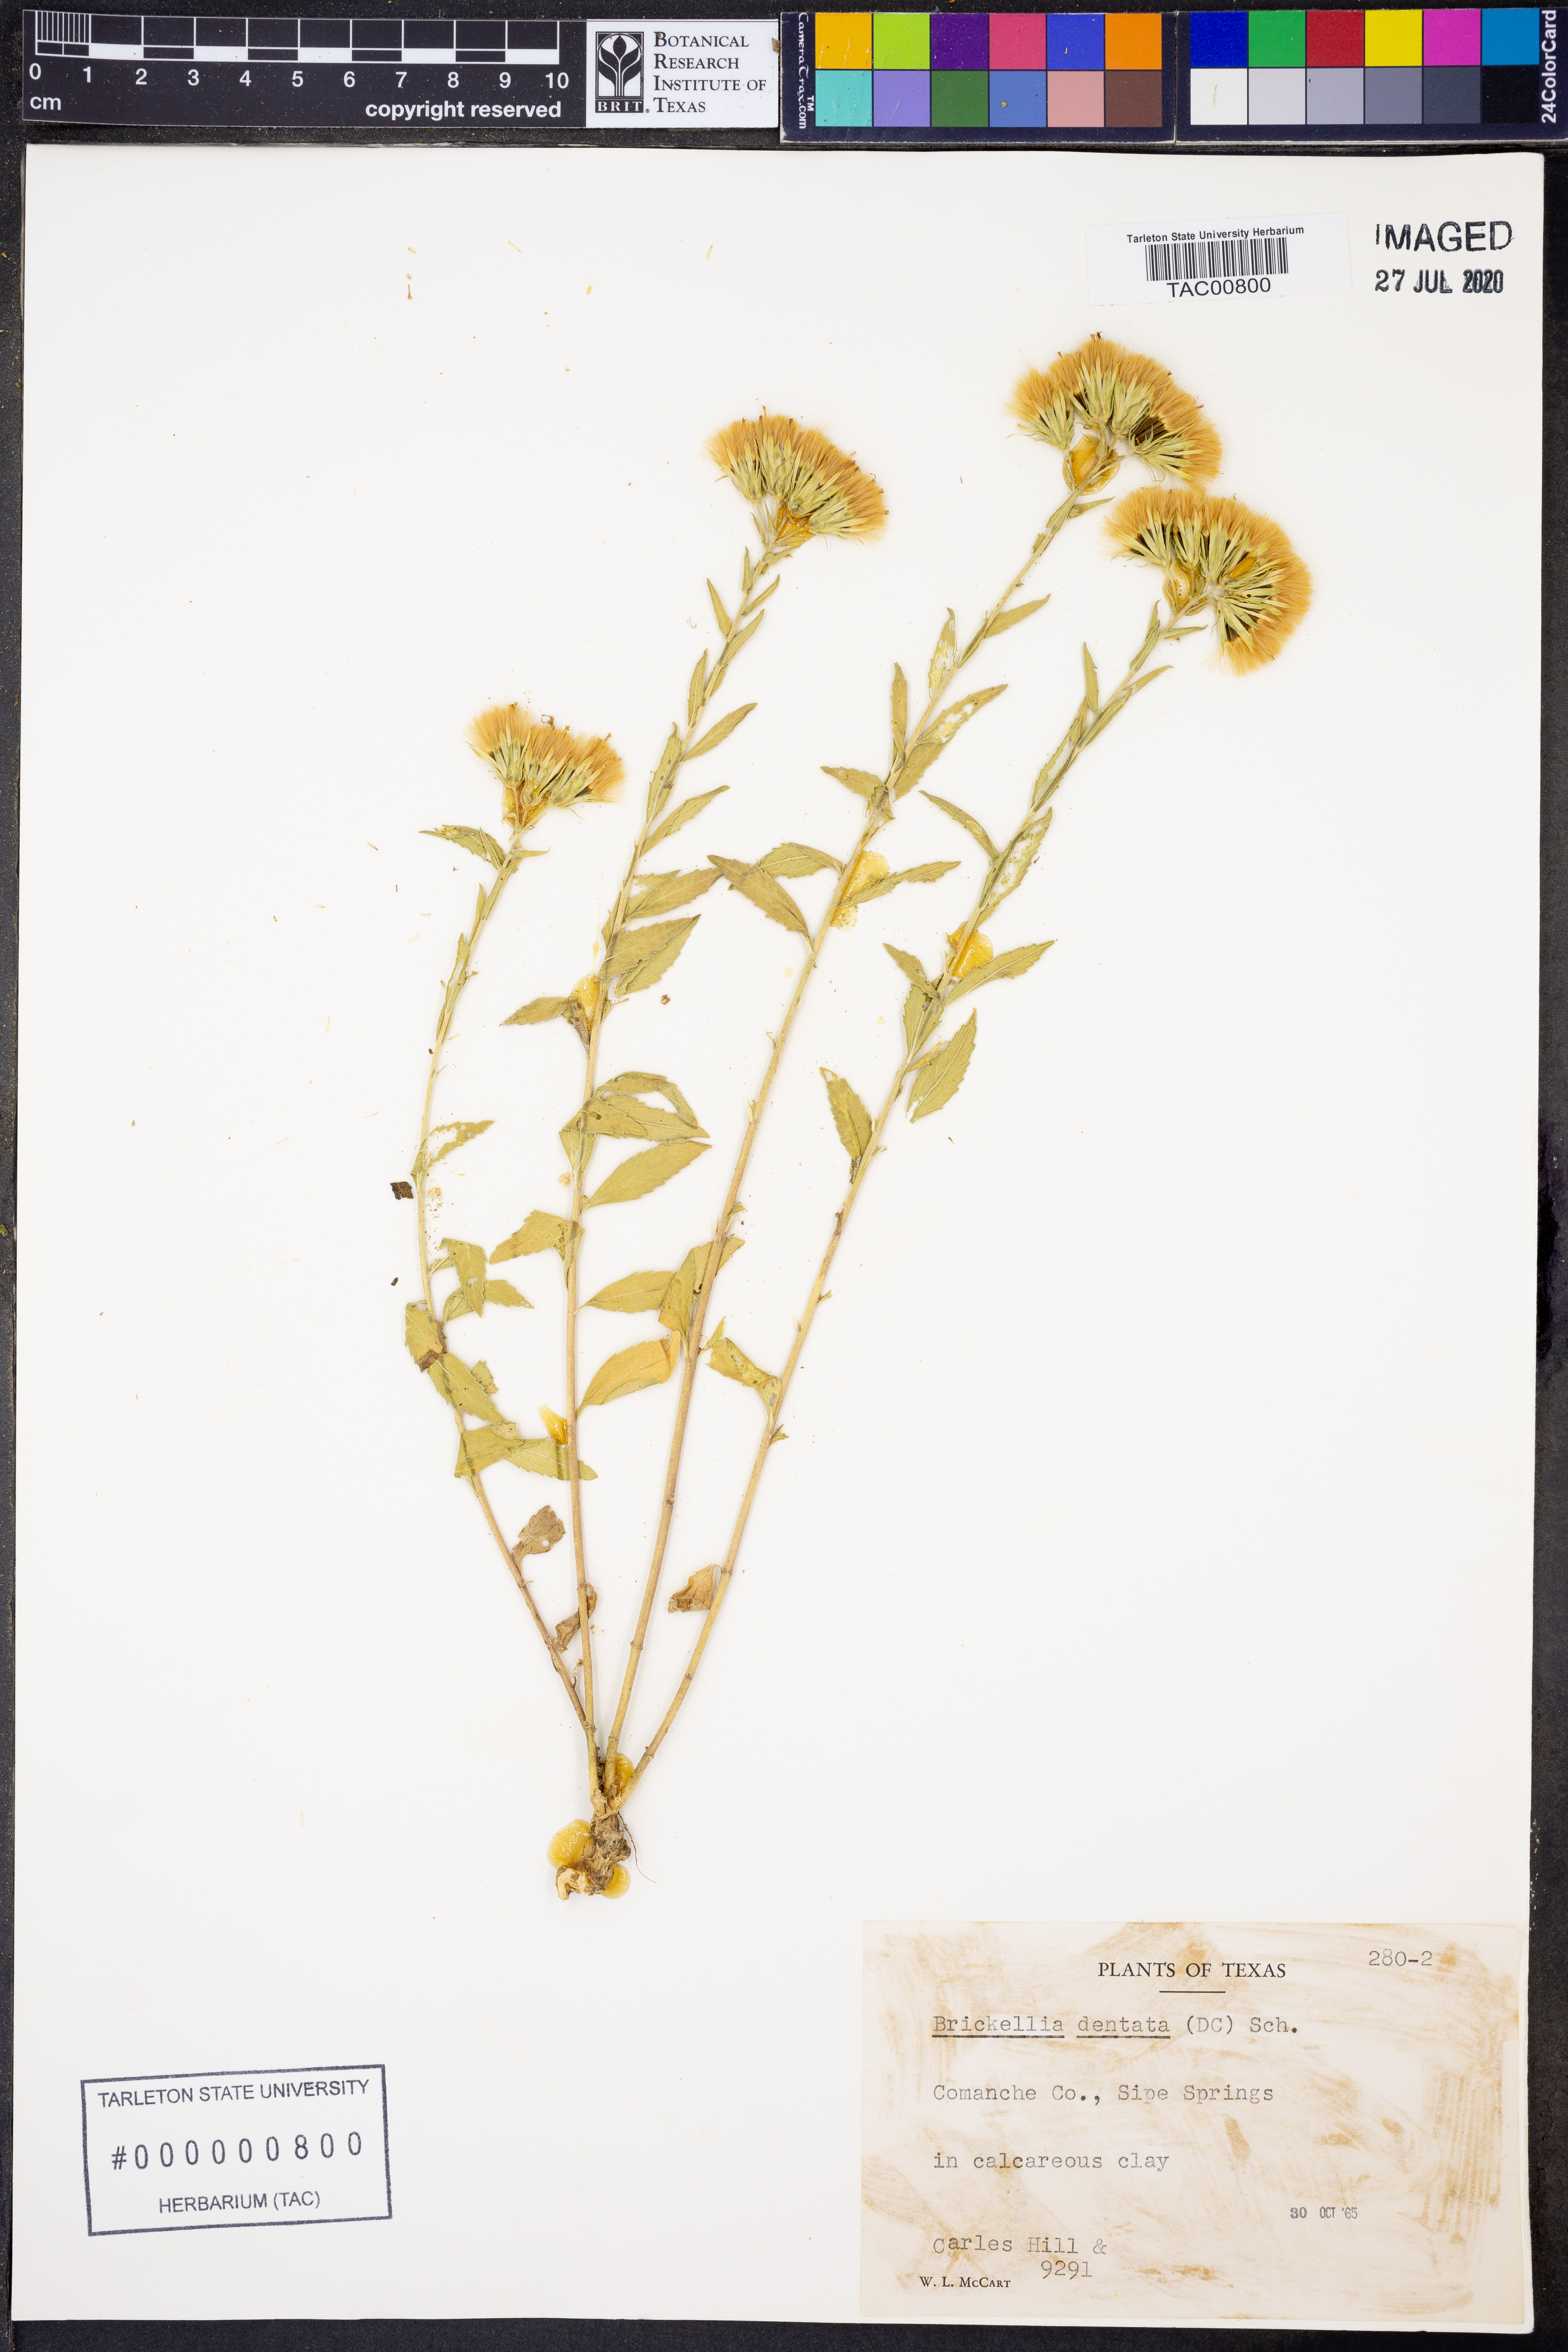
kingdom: Plantae
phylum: Tracheophyta
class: Magnoliopsida
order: Asterales
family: Asteraceae
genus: Brickellia
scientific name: Brickellia dentata
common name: Leafy brickellbush
